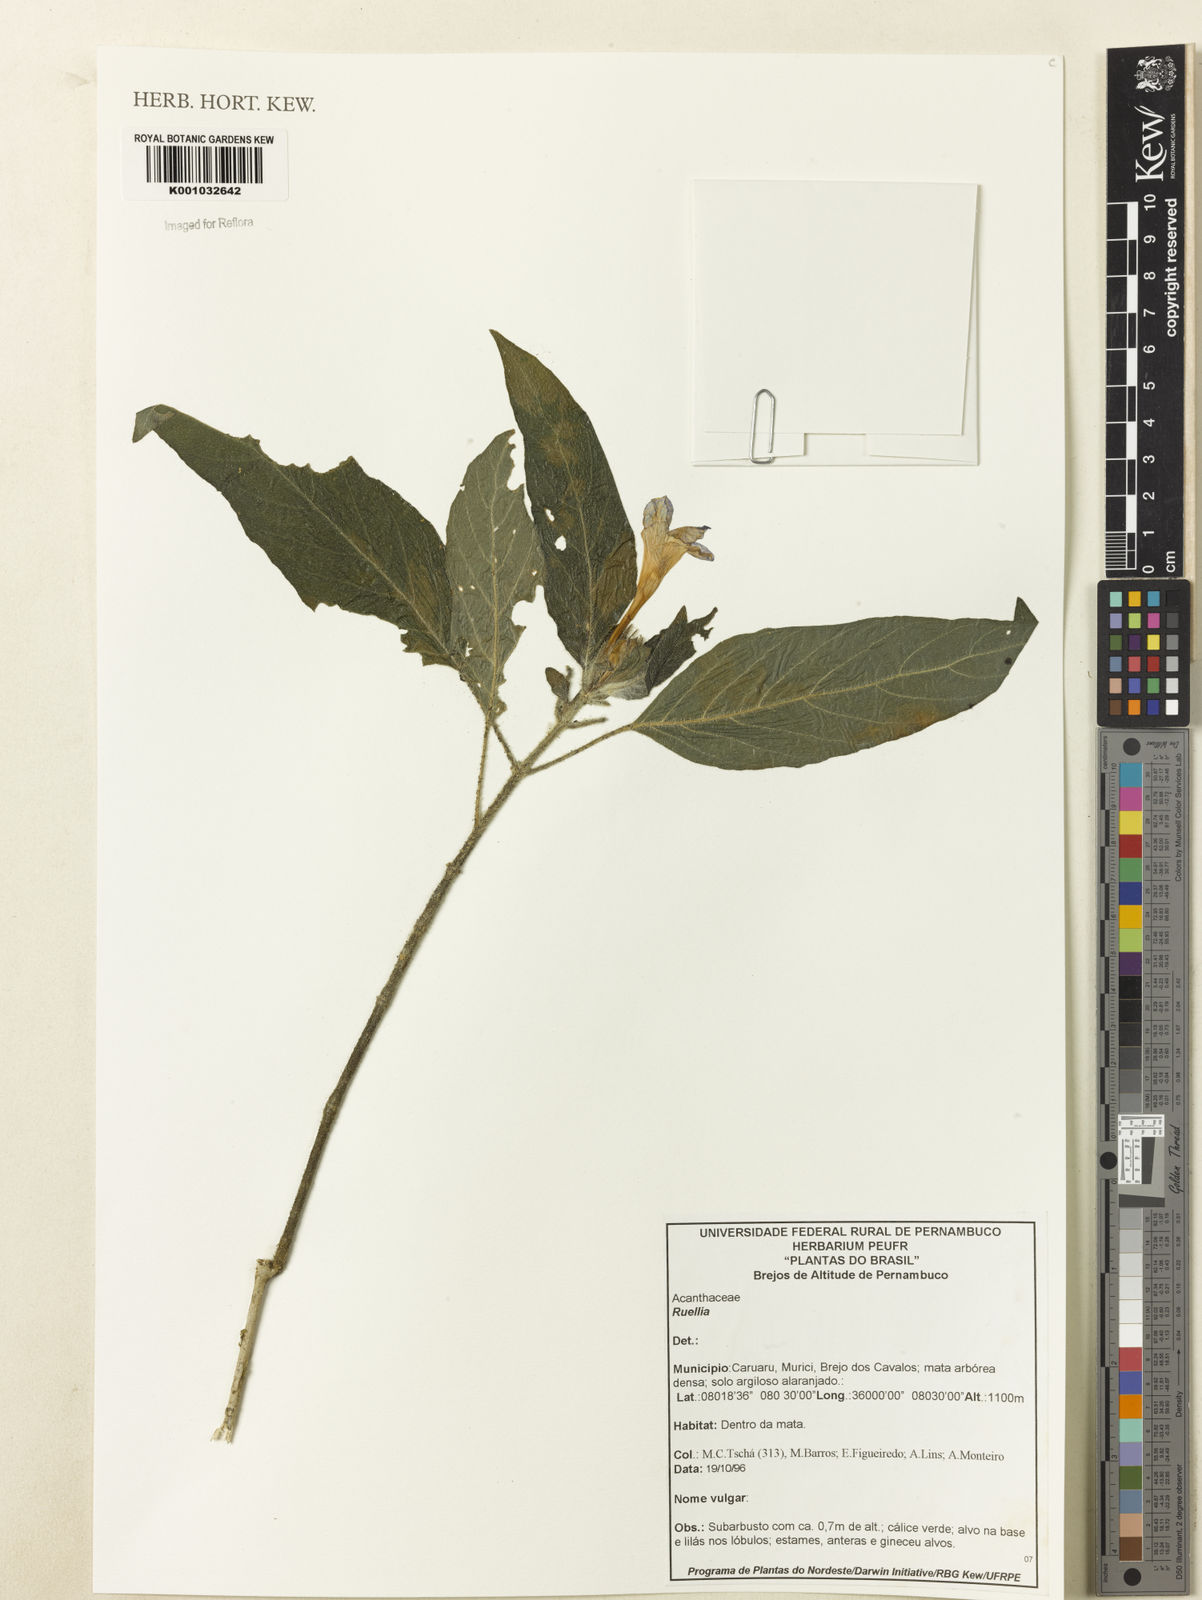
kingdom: Plantae
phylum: Tracheophyta
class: Magnoliopsida
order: Lamiales
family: Acanthaceae
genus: Ruellia
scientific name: Ruellia
